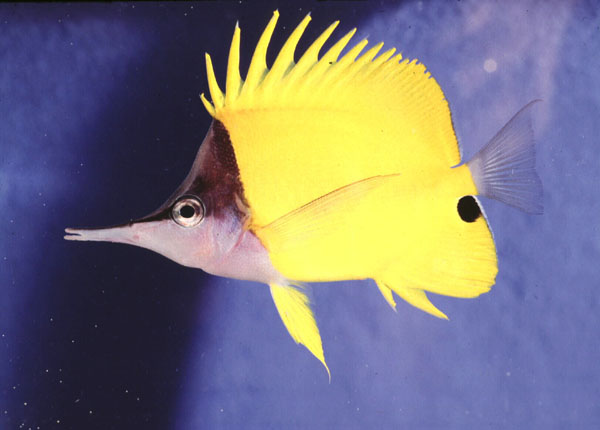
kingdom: Animalia
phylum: Chordata
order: Perciformes
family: Chaetodontidae
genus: Forcipiger
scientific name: Forcipiger flavissimus
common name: Forcepsfish
